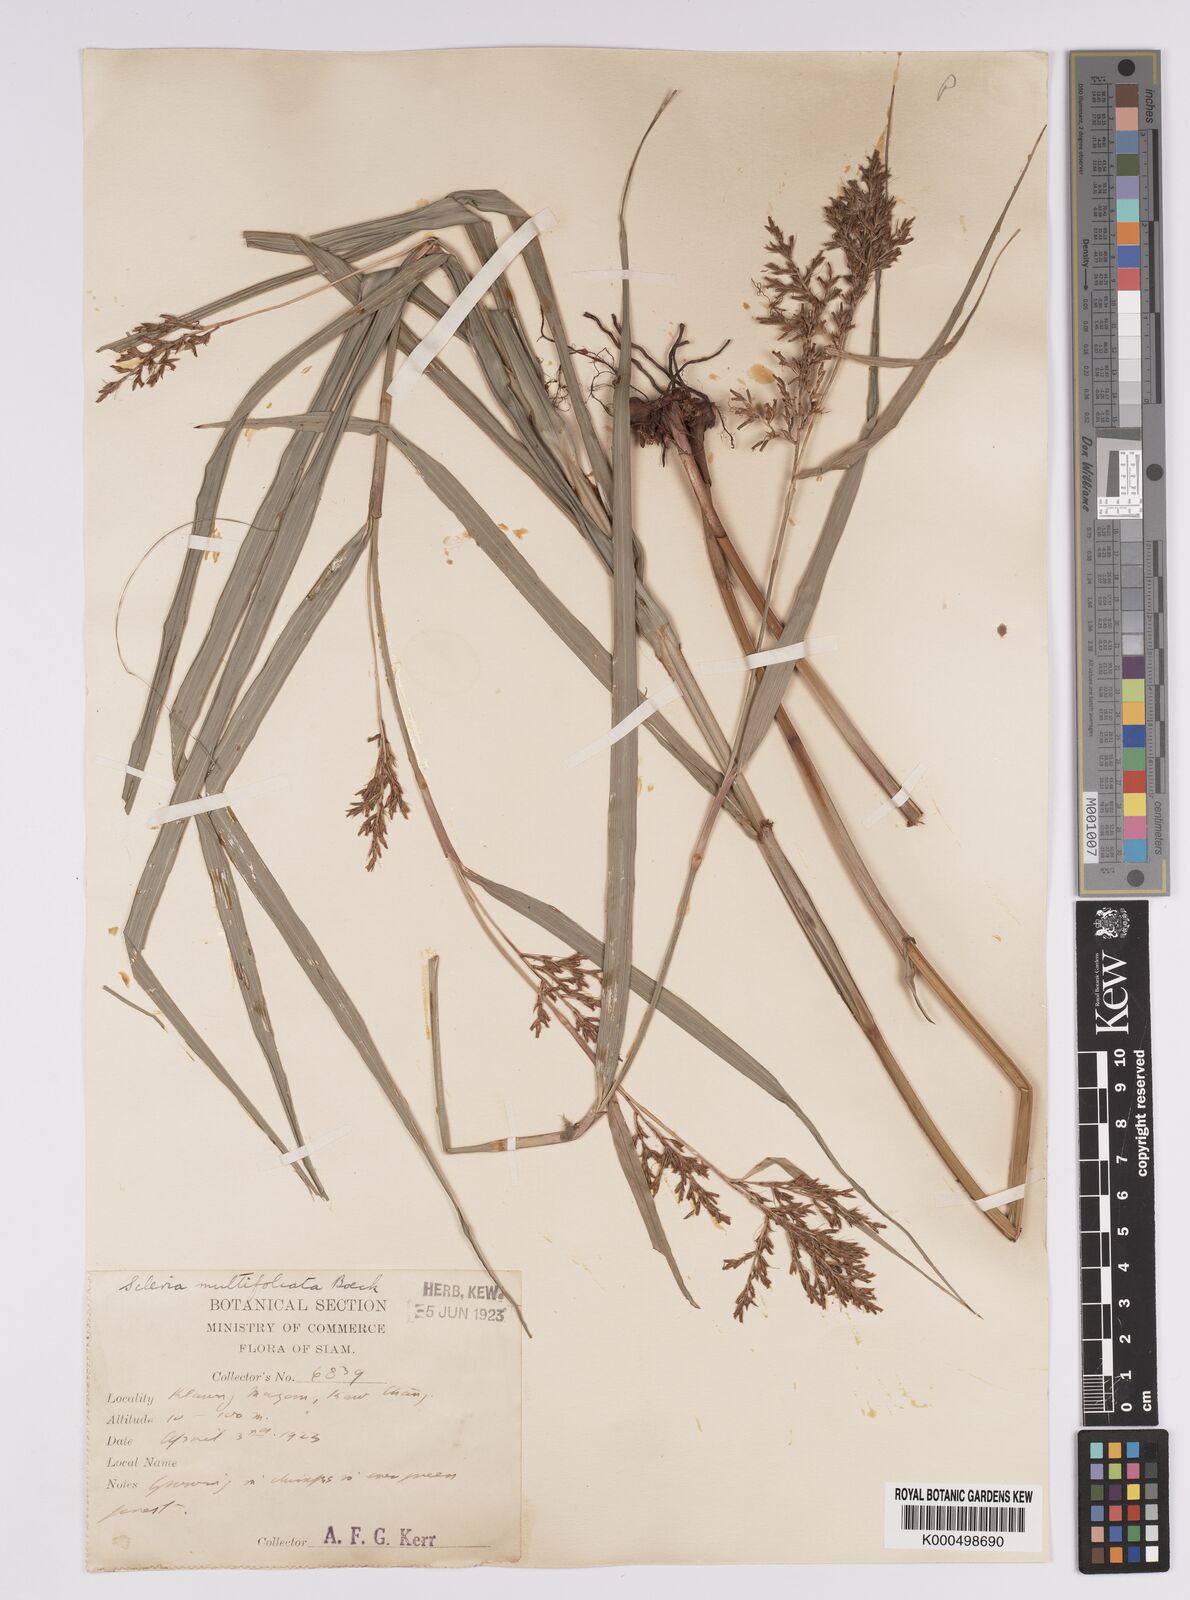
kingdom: Plantae
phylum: Tracheophyta
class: Liliopsida
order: Poales
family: Cyperaceae
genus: Scleria
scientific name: Scleria purpurascens
